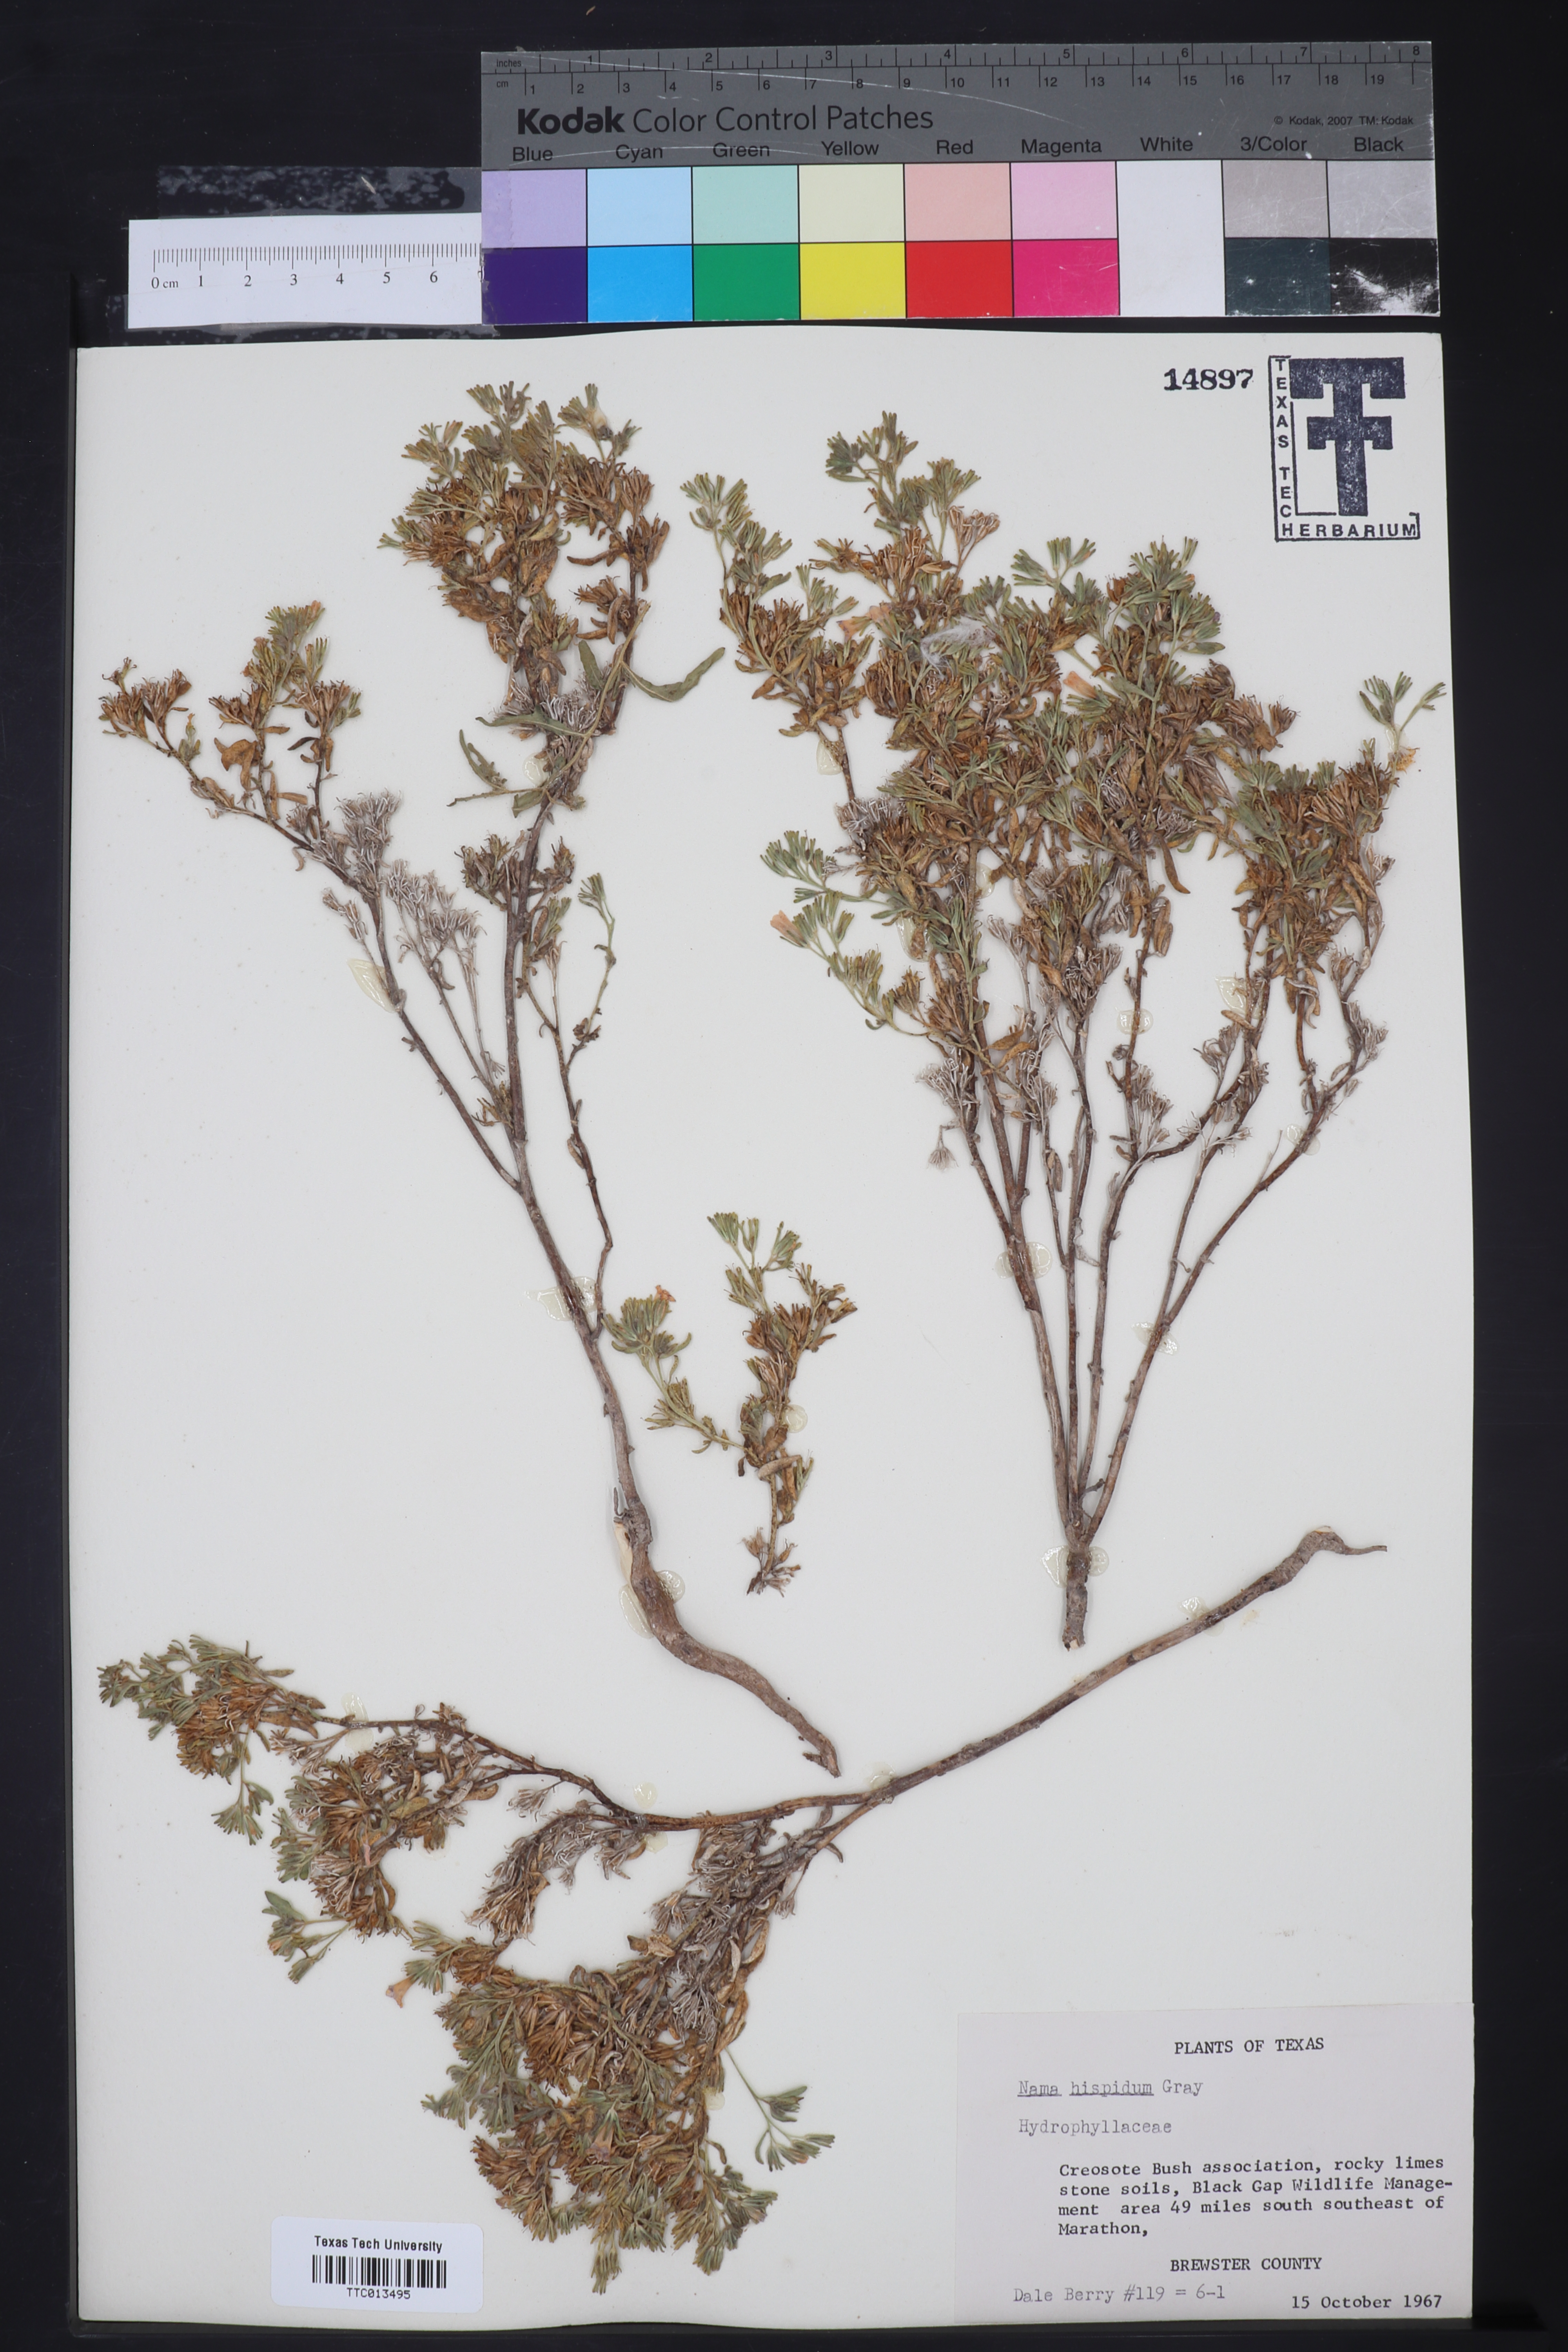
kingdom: Plantae
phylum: Tracheophyta
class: Magnoliopsida
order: Boraginales
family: Namaceae
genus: Nama
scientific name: Nama hispida
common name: Bristly nama
